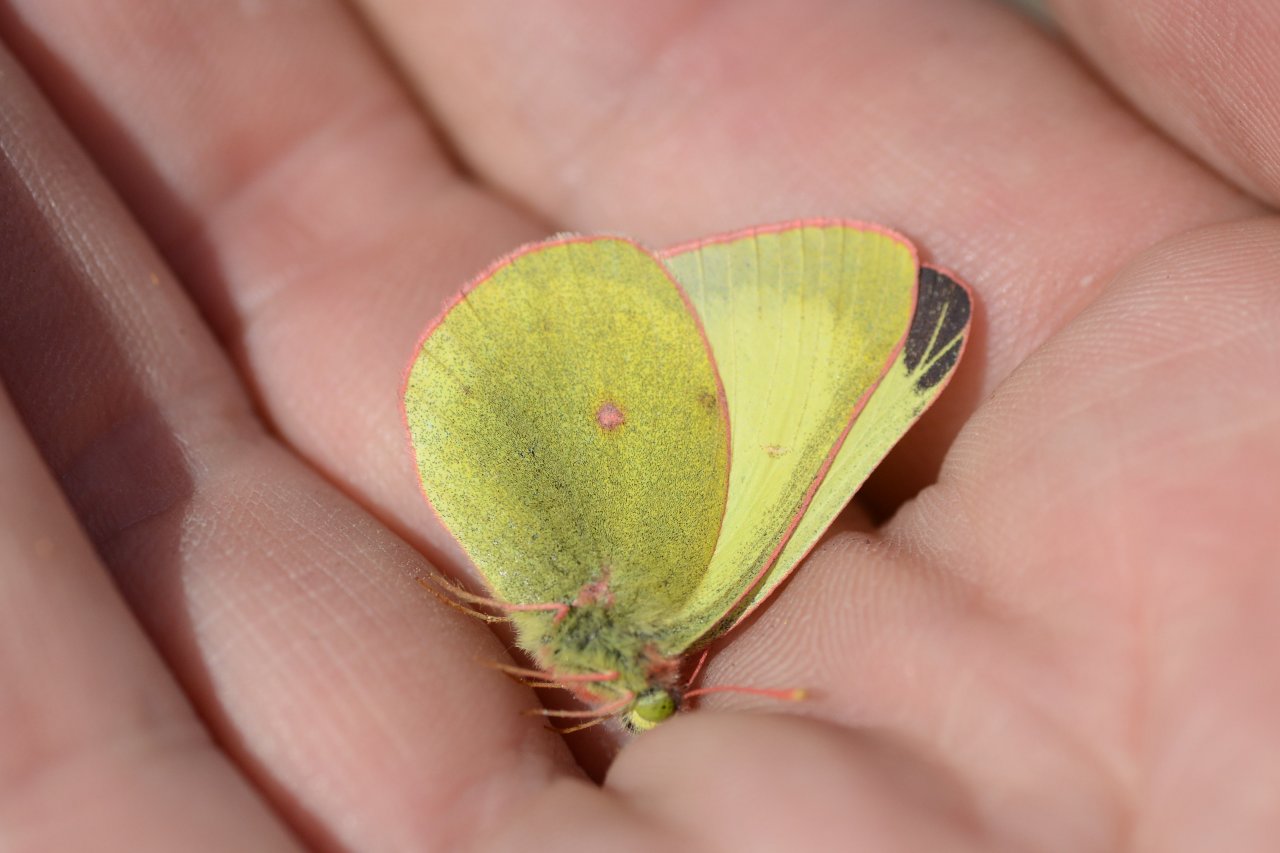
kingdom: Animalia
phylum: Arthropoda
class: Insecta
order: Lepidoptera
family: Pieridae
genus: Colias
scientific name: Colias pelidne
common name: Pelidne Sulphur
